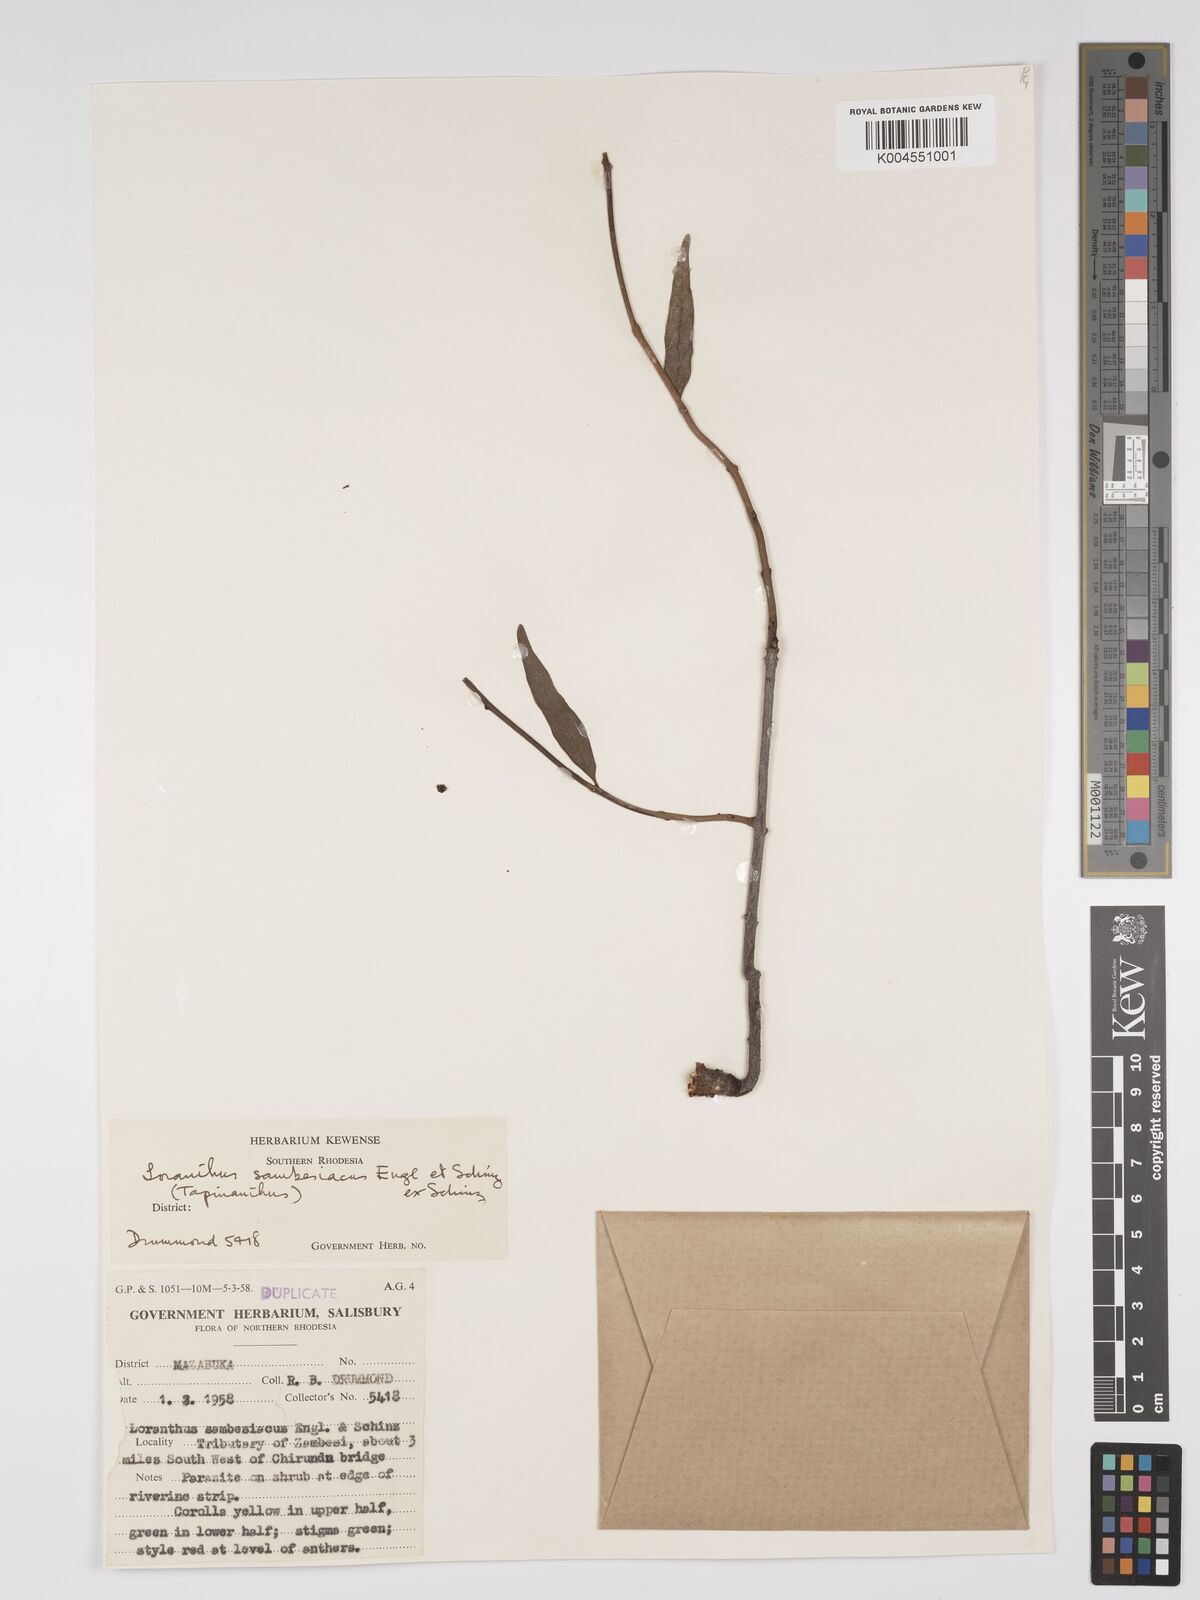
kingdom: Plantae
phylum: Tracheophyta
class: Magnoliopsida
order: Santalales
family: Loranthaceae
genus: Agelanthus
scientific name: Agelanthus sambesiacus
